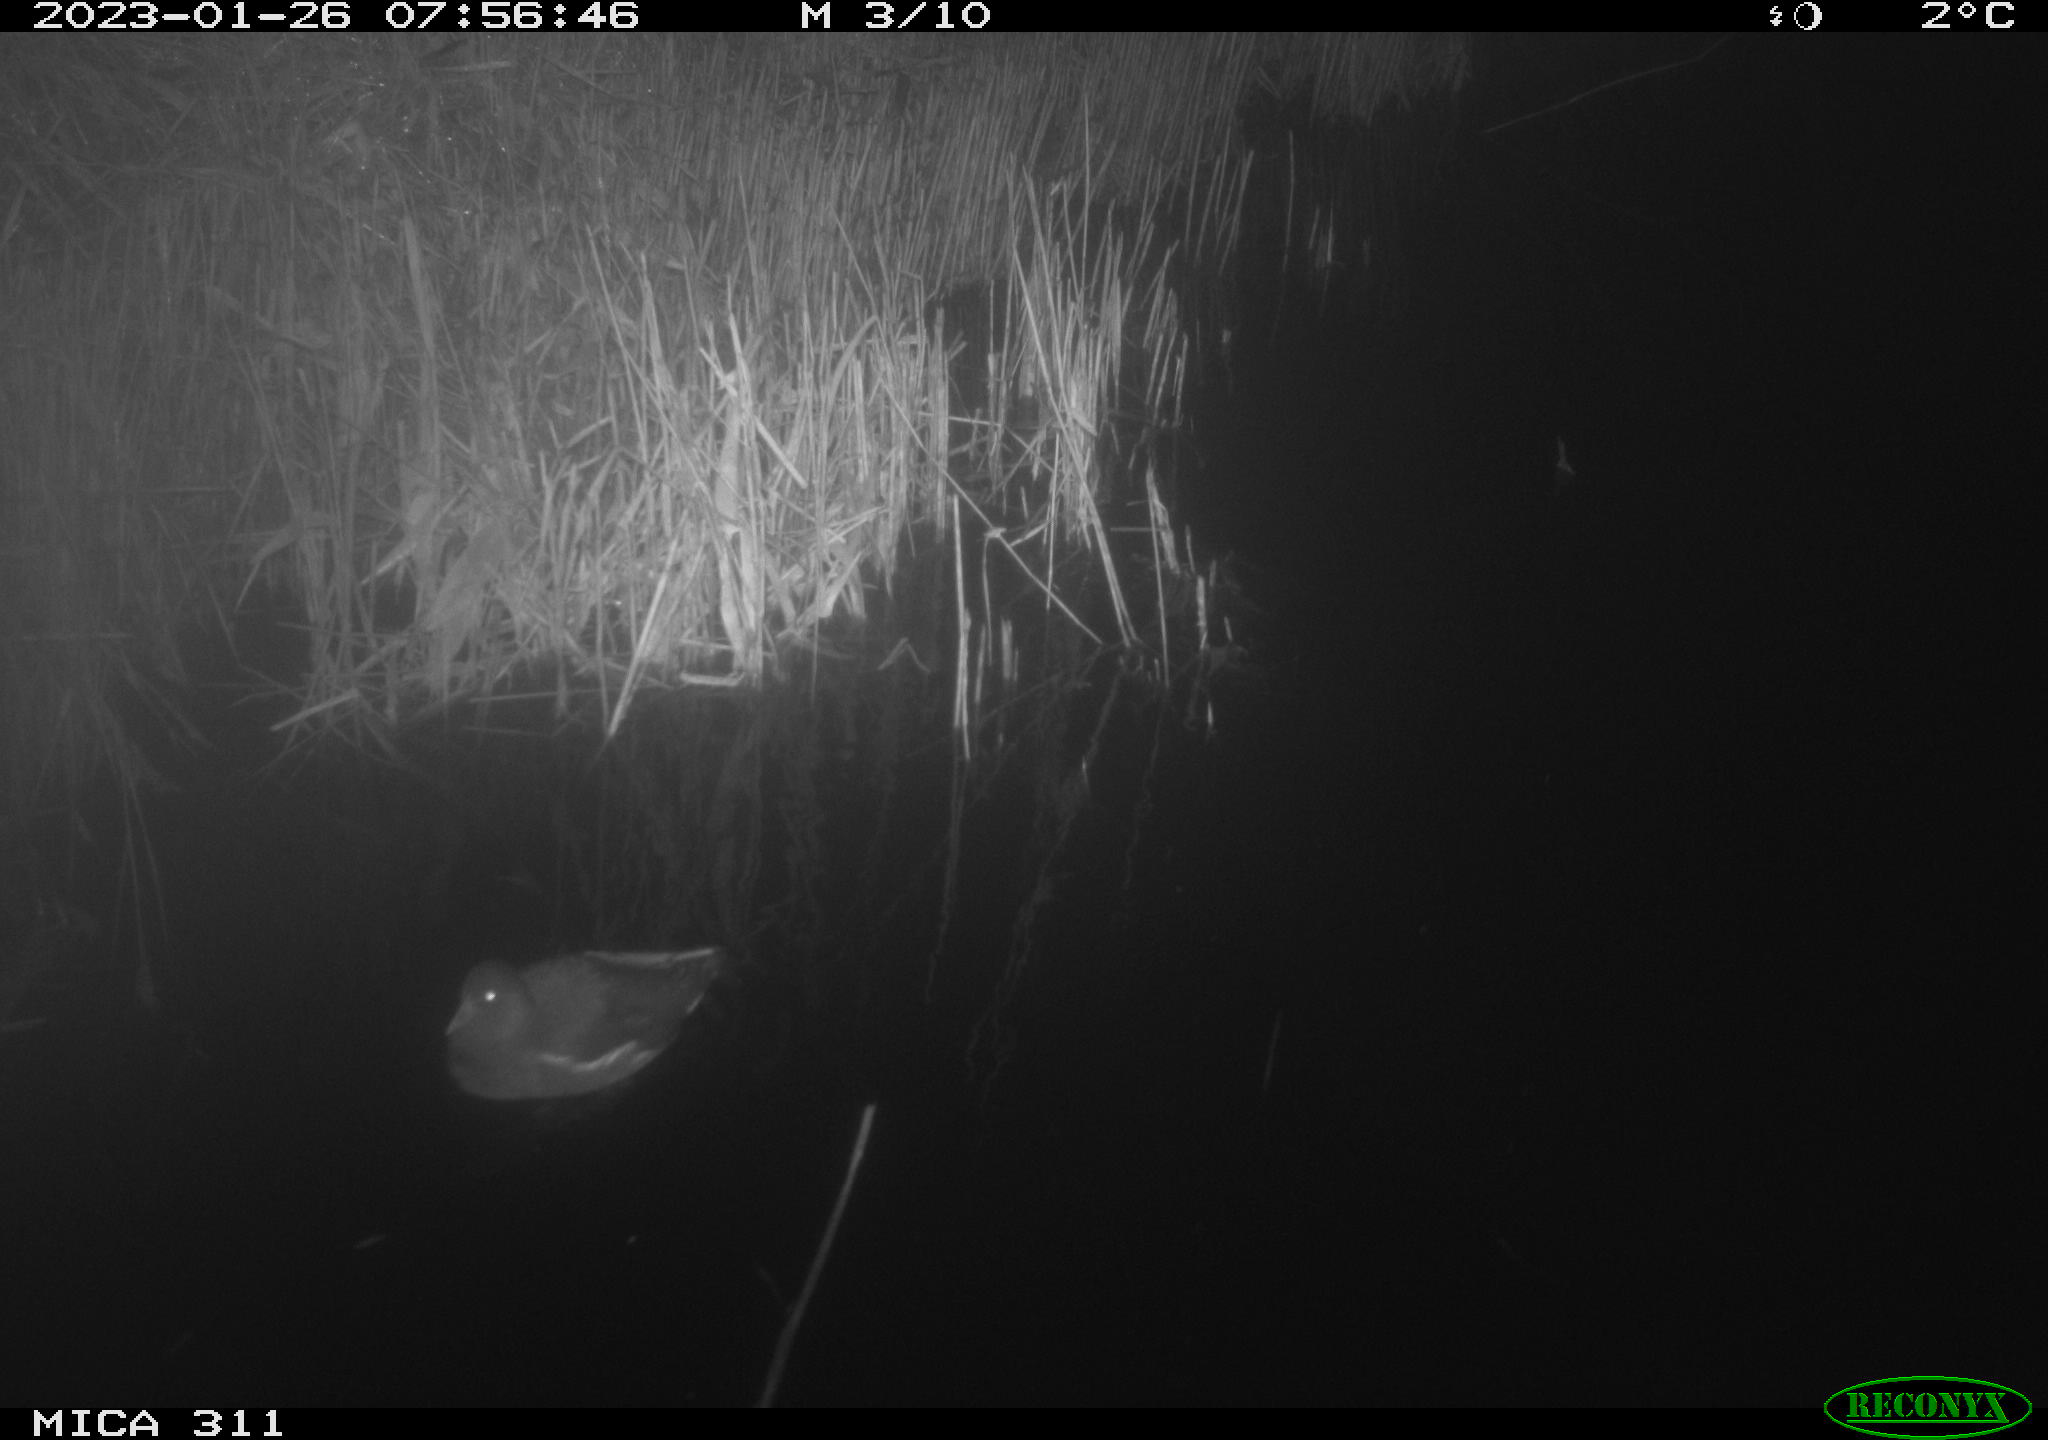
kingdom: Animalia
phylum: Chordata
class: Aves
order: Gruiformes
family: Rallidae
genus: Gallinula
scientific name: Gallinula chloropus
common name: Common moorhen
